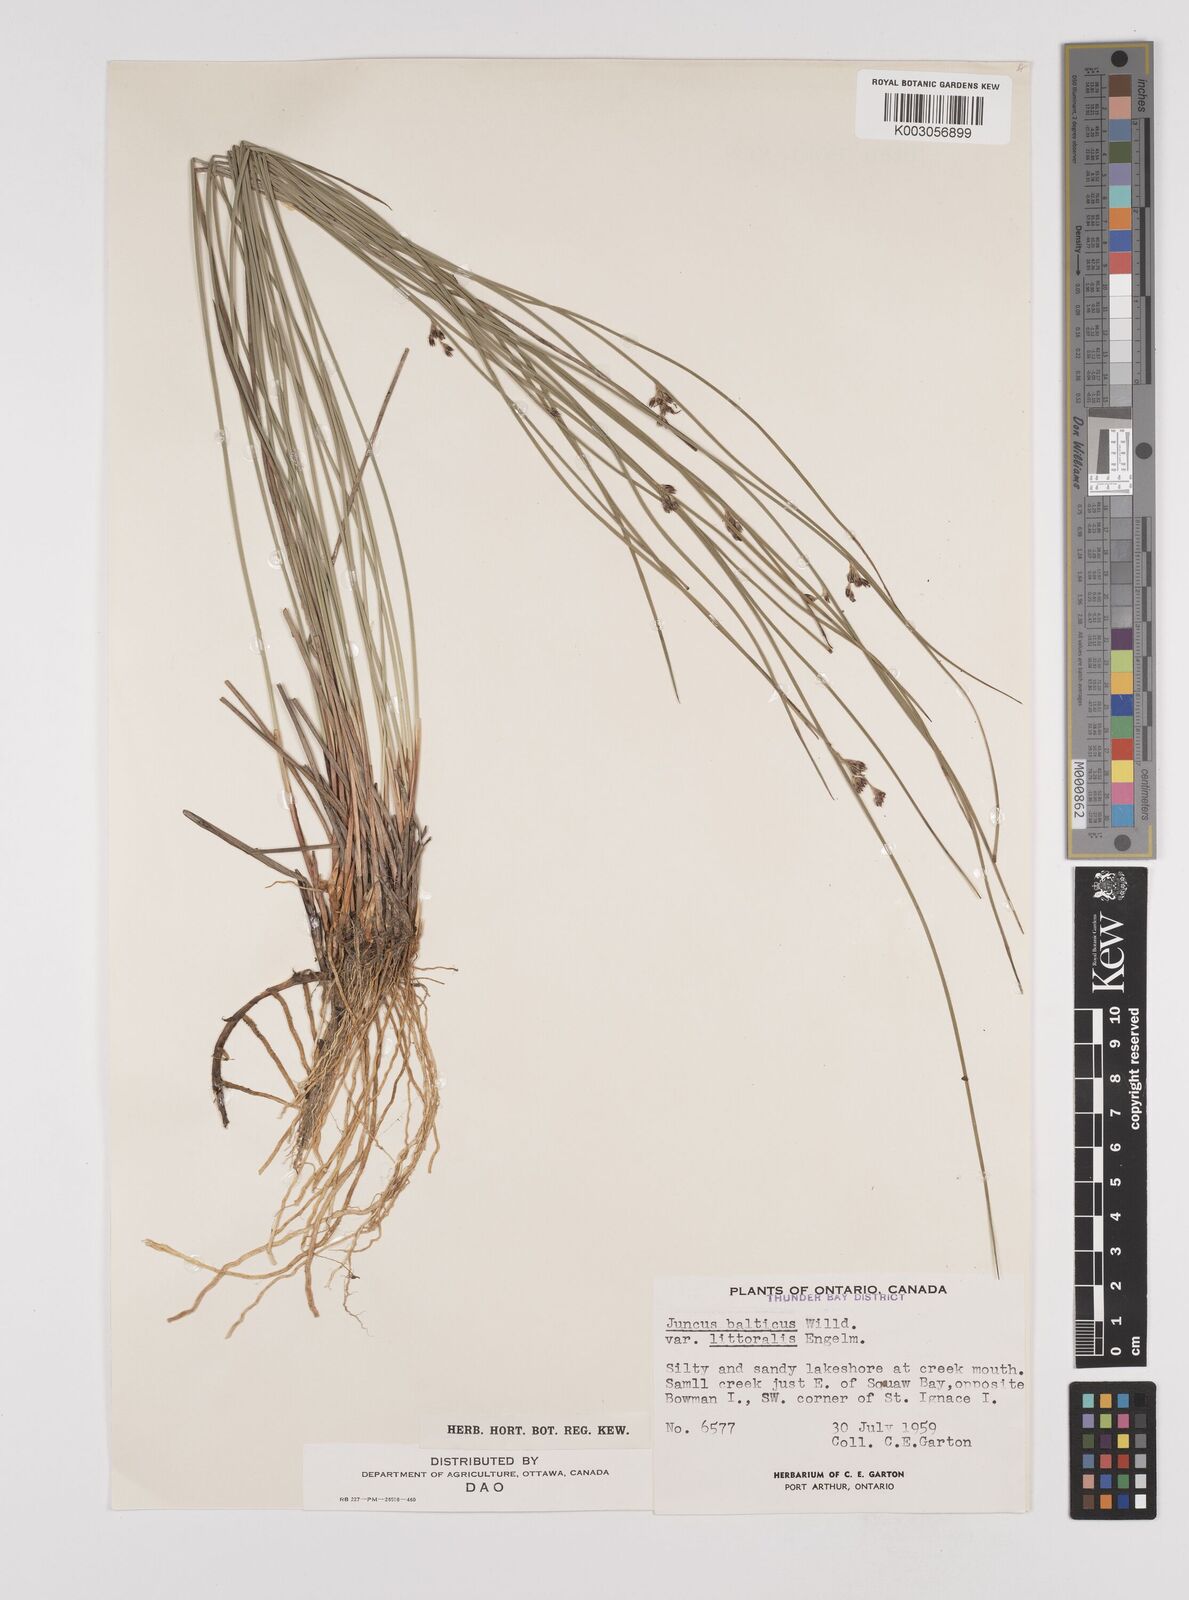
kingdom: Plantae
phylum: Tracheophyta
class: Liliopsida
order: Poales
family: Juncaceae
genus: Juncus
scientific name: Juncus balticus
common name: Baltic rush
